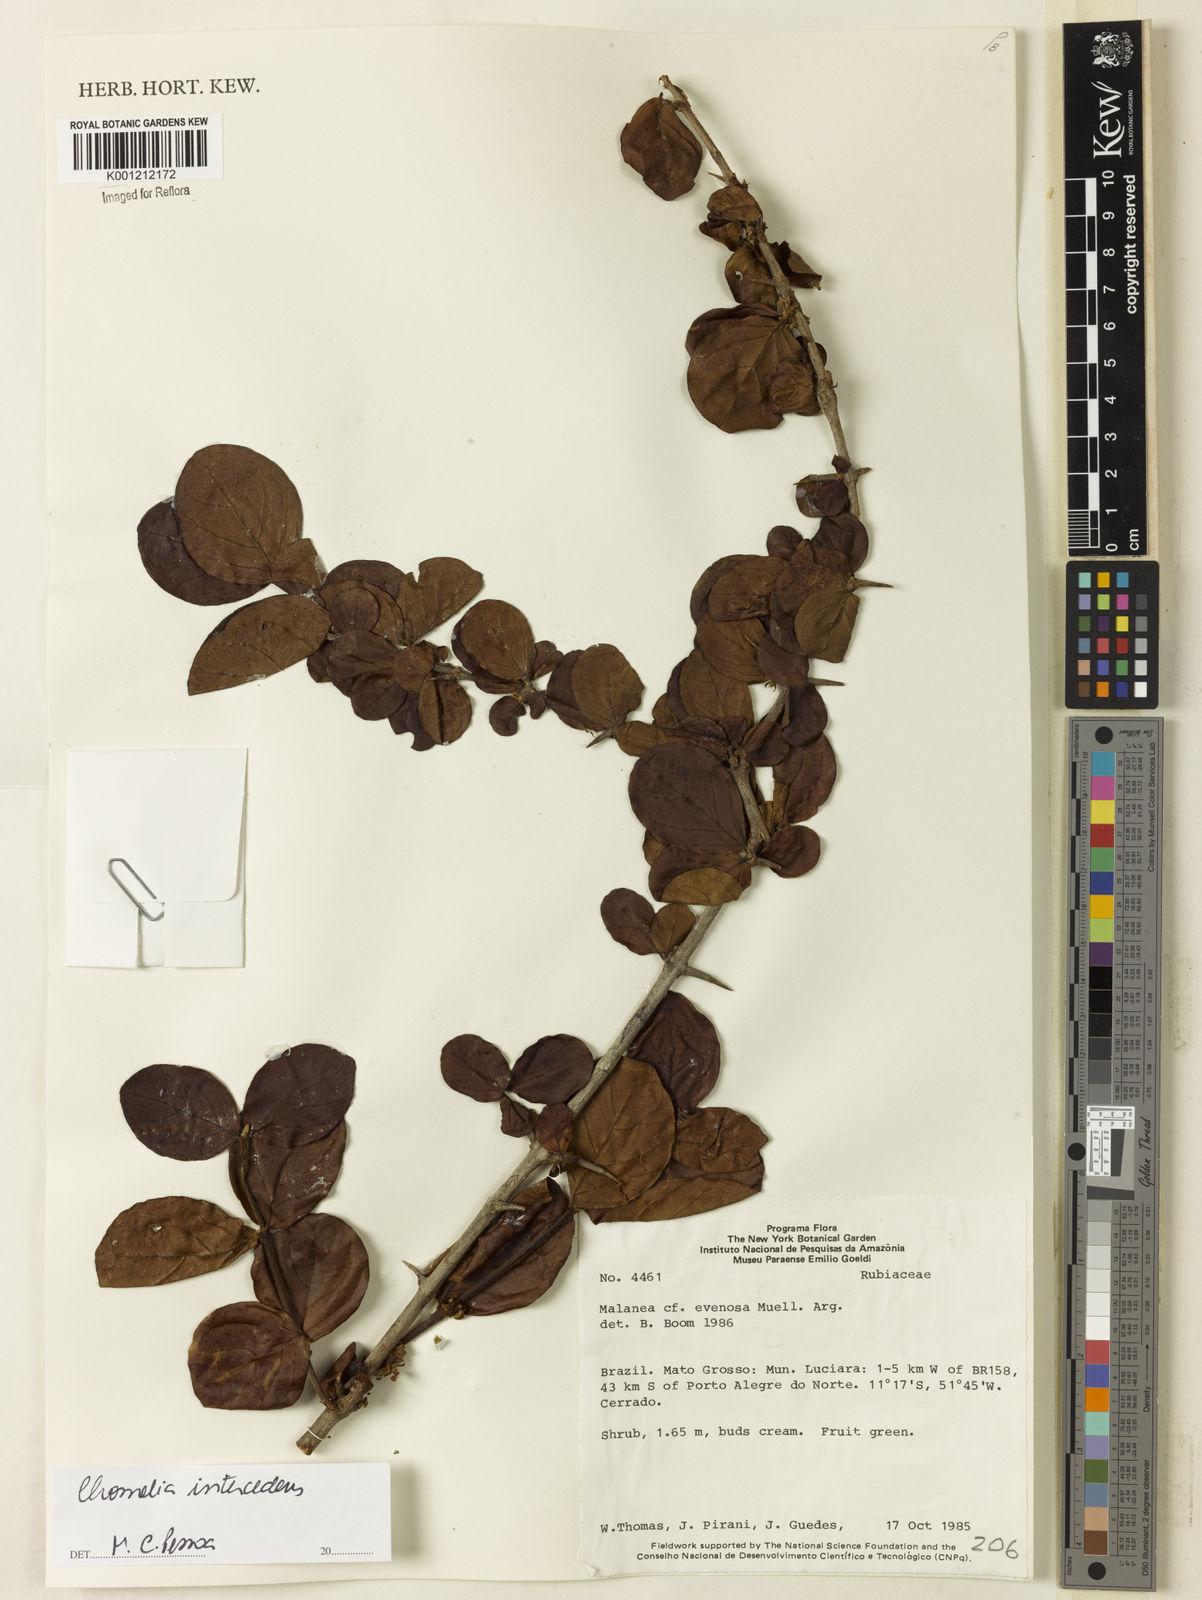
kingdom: Plantae
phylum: Tracheophyta
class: Magnoliopsida
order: Gentianales
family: Rubiaceae
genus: Chomelia
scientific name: Chomelia
